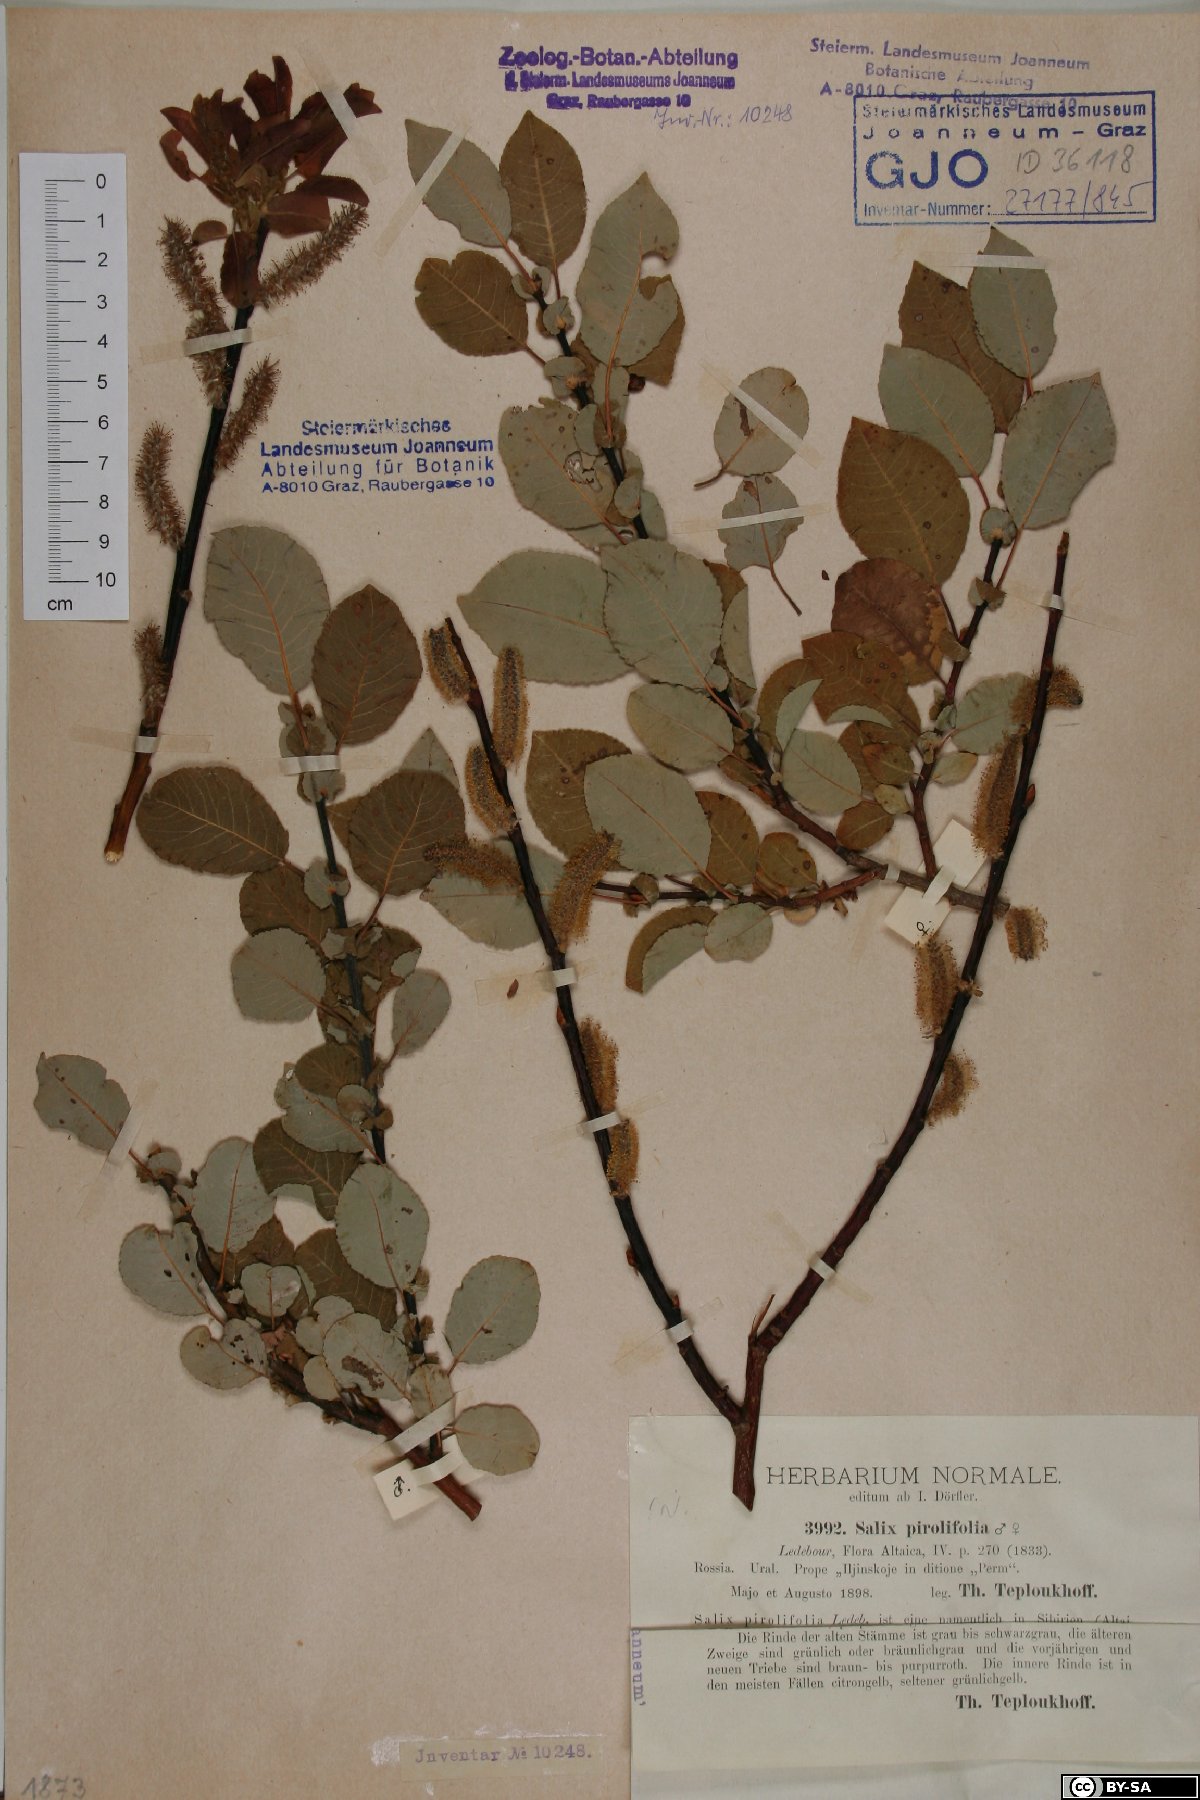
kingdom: Plantae
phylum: Tracheophyta
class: Magnoliopsida
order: Malpighiales
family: Salicaceae
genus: Salix
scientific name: Salix pyrolifolia
